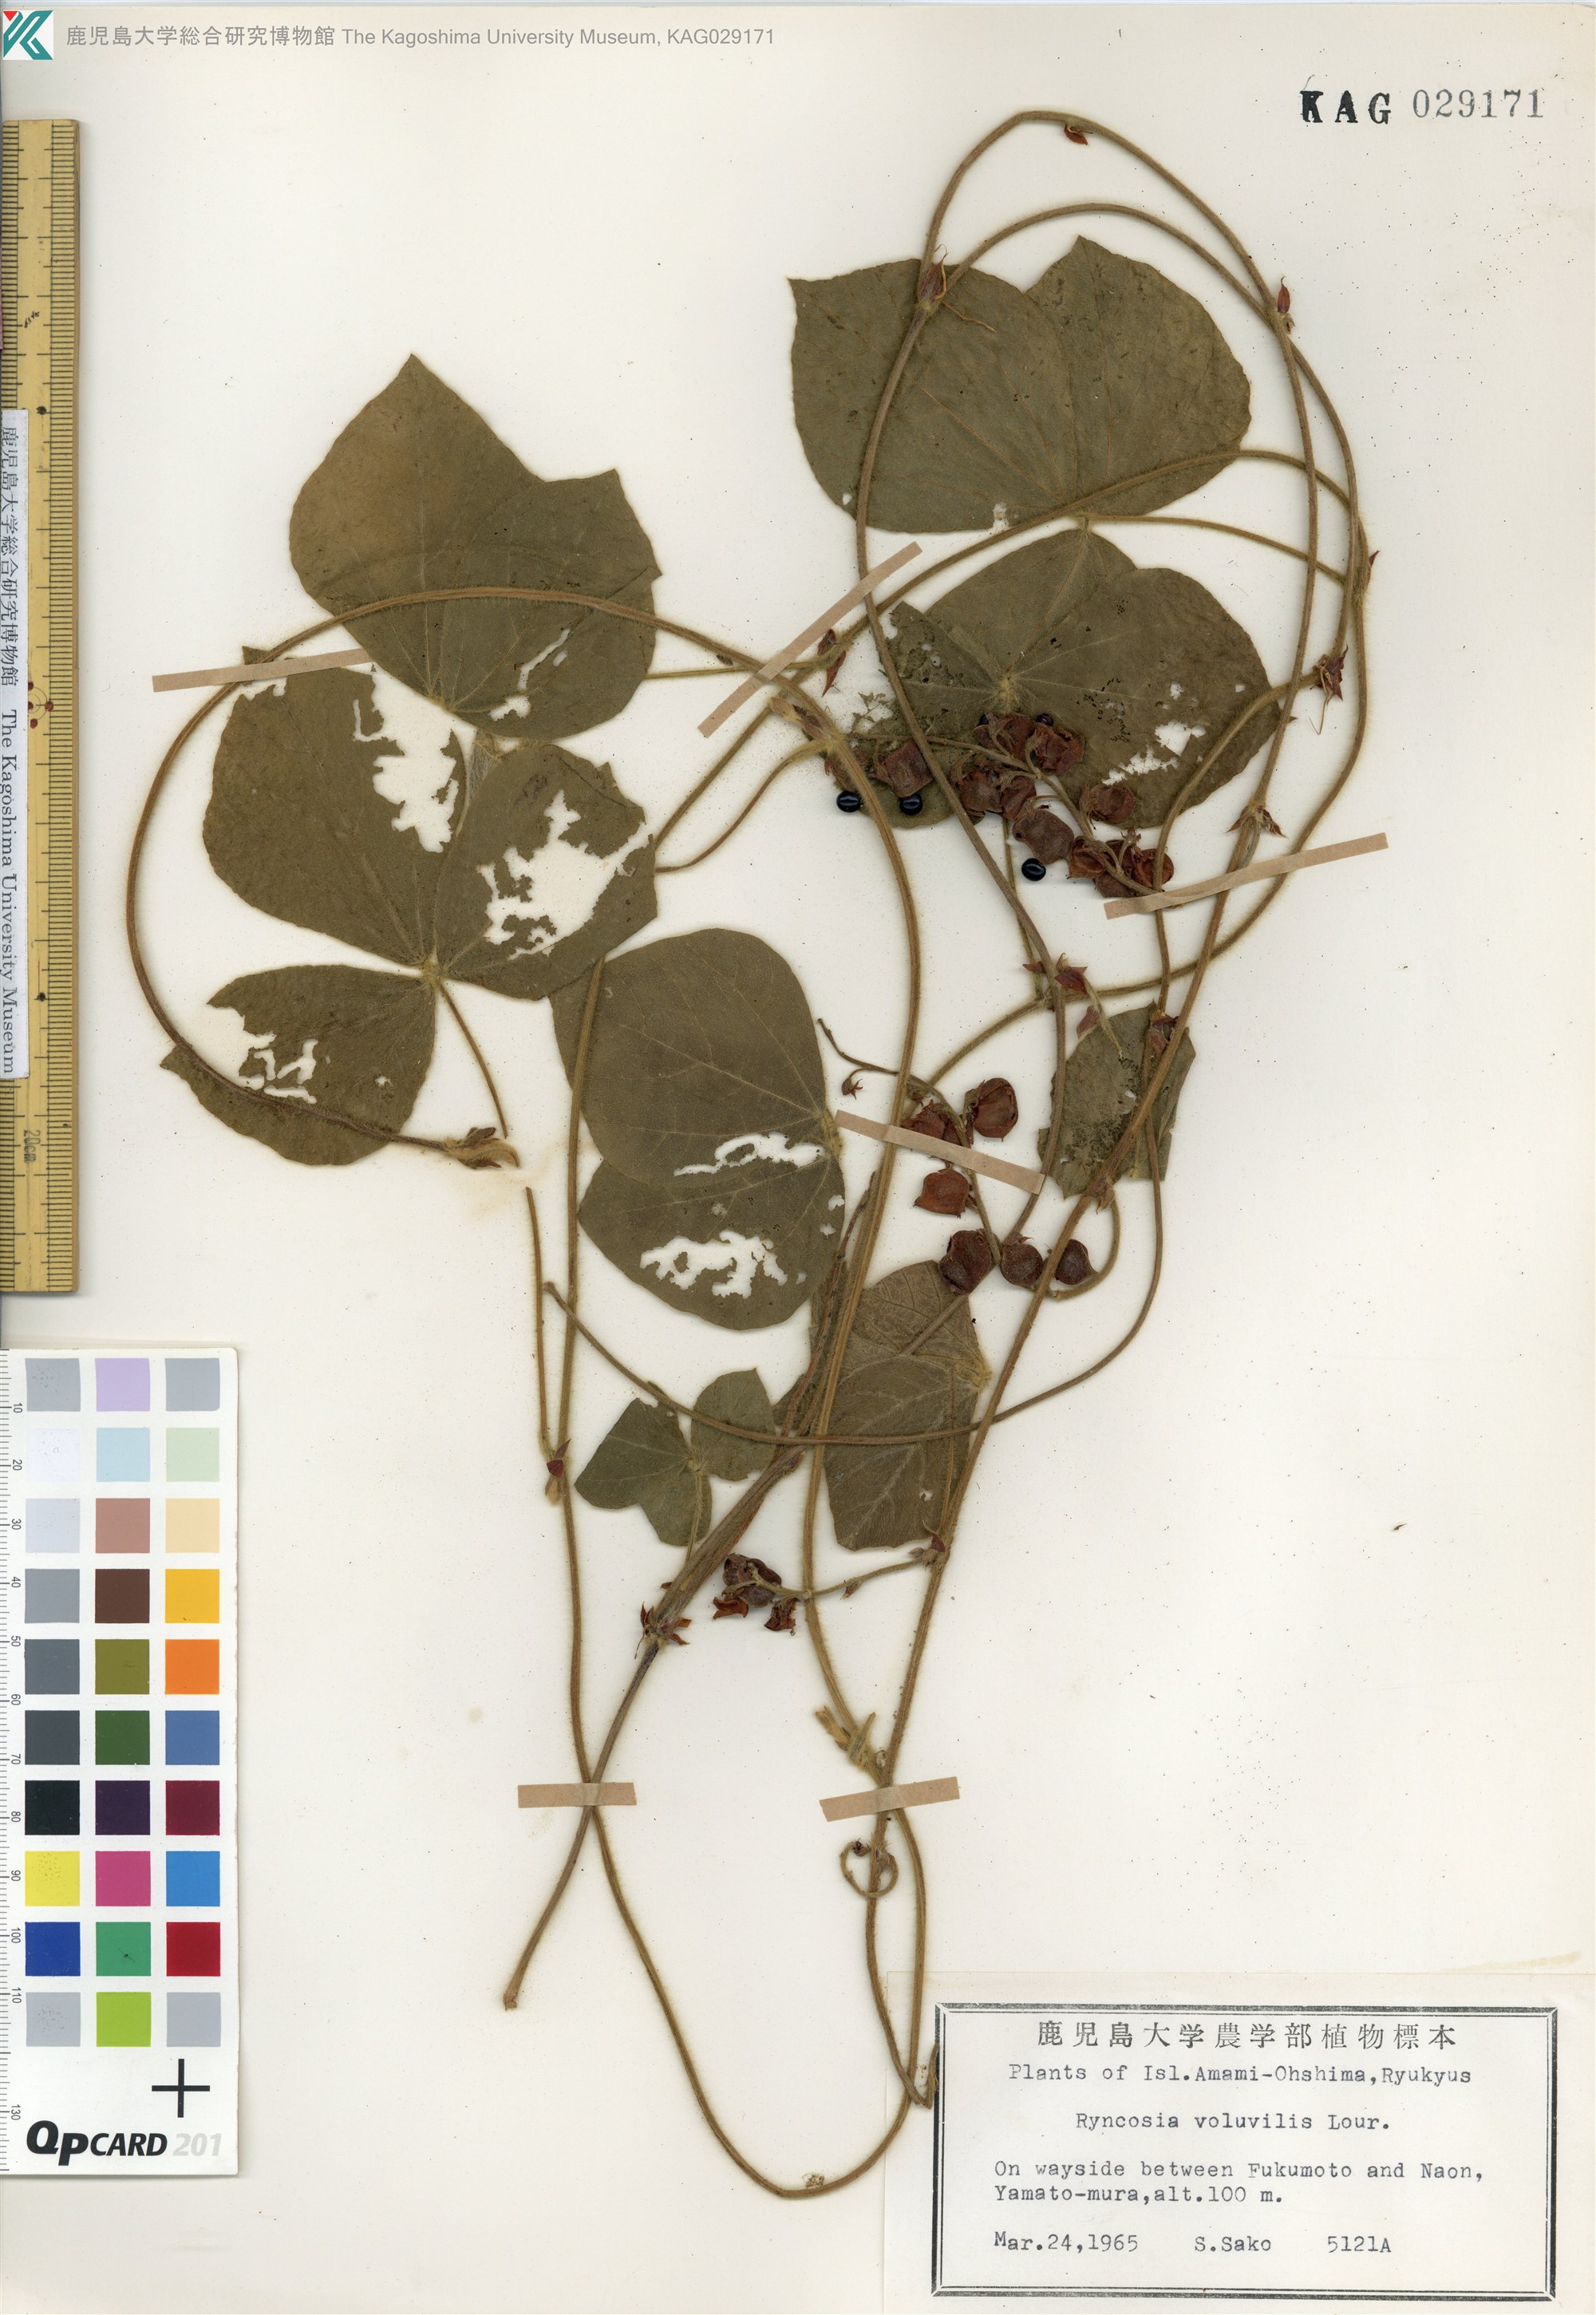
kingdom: Plantae
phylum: Tracheophyta
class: Magnoliopsida
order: Fabales
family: Fabaceae
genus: Rhynchosia
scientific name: Rhynchosia volubilis
